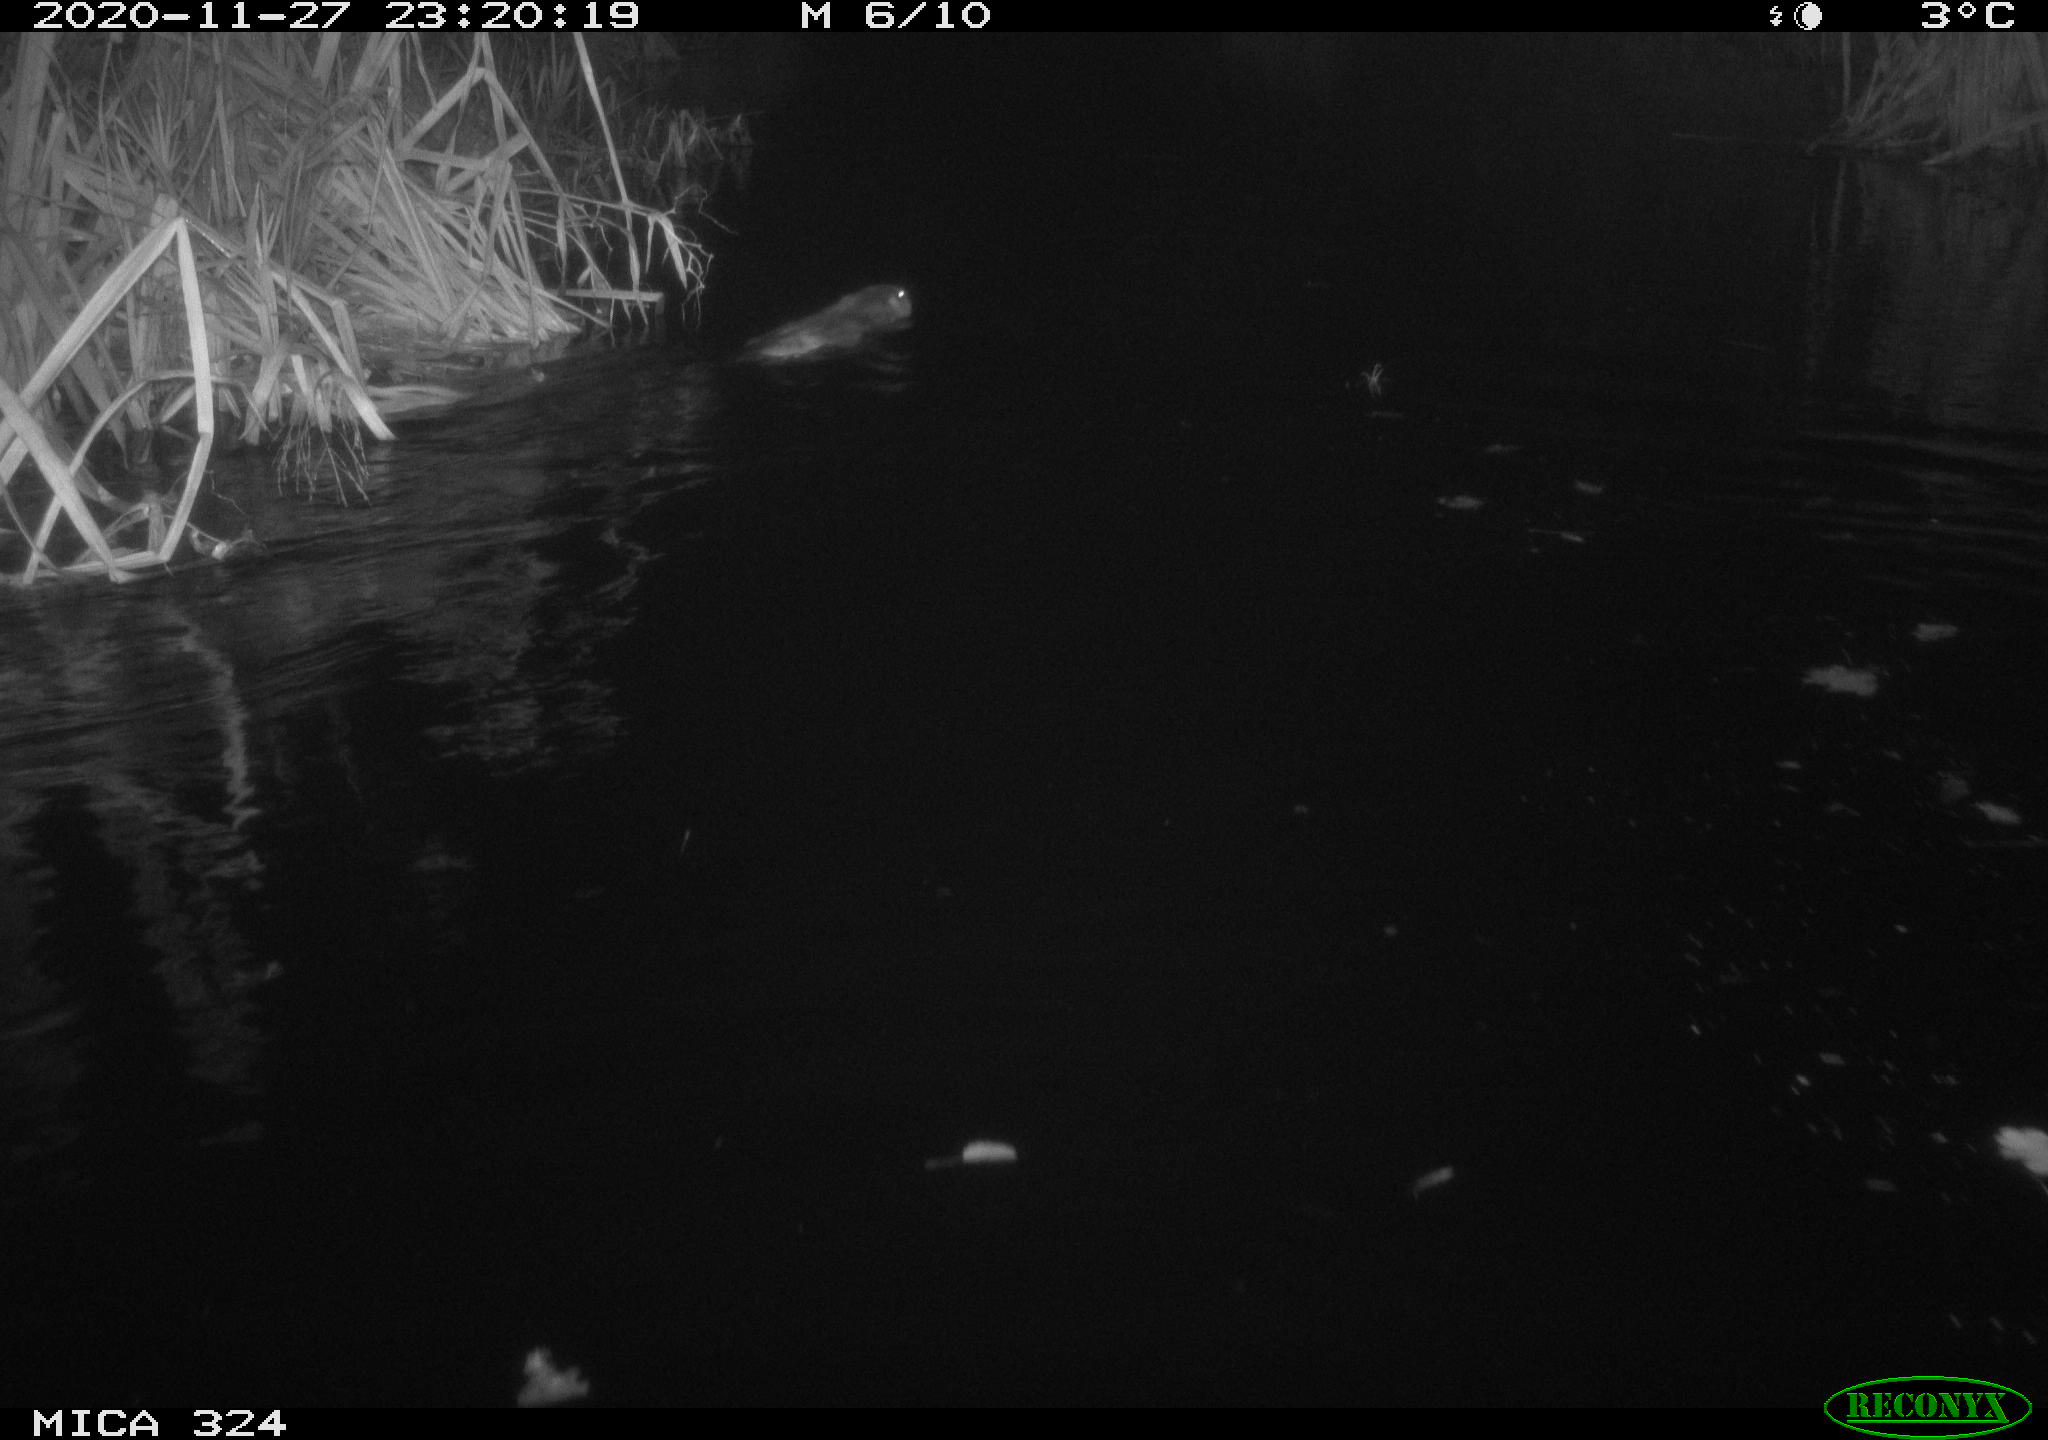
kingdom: Animalia
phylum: Chordata
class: Mammalia
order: Rodentia
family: Myocastoridae
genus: Myocastor
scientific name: Myocastor coypus
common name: Coypu
